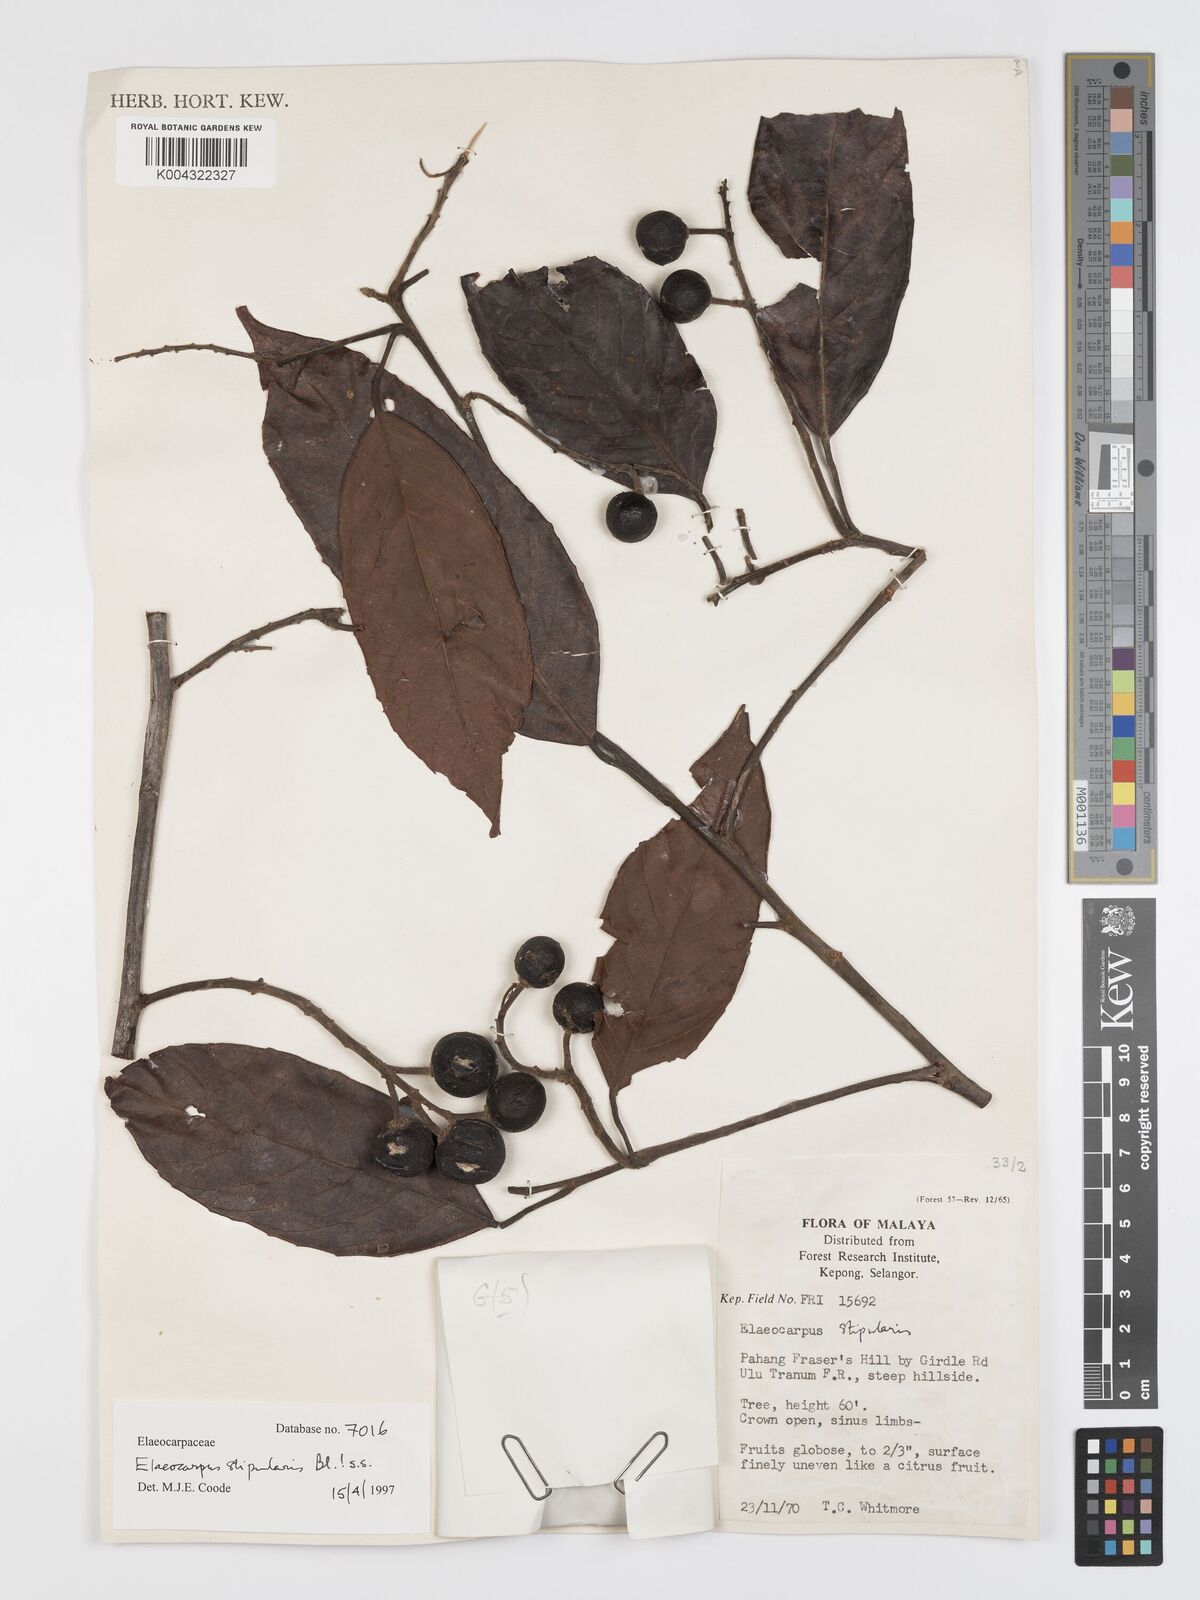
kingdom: Plantae
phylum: Tracheophyta
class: Magnoliopsida
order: Oxalidales
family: Elaeocarpaceae
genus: Elaeocarpus
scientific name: Elaeocarpus stipularis
